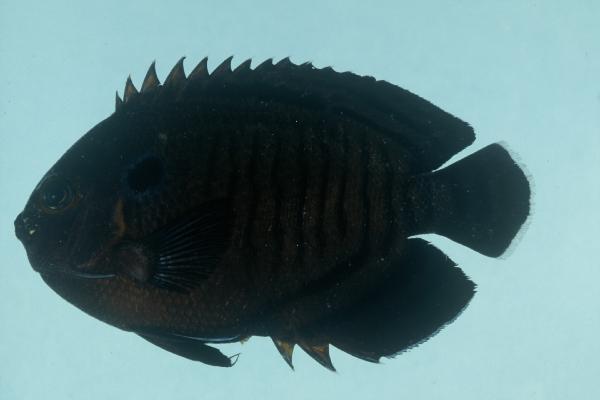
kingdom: Animalia
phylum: Chordata
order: Perciformes
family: Pomacanthidae
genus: Centropyge
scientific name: Centropyge multispinis
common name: Many-spined angelfish
